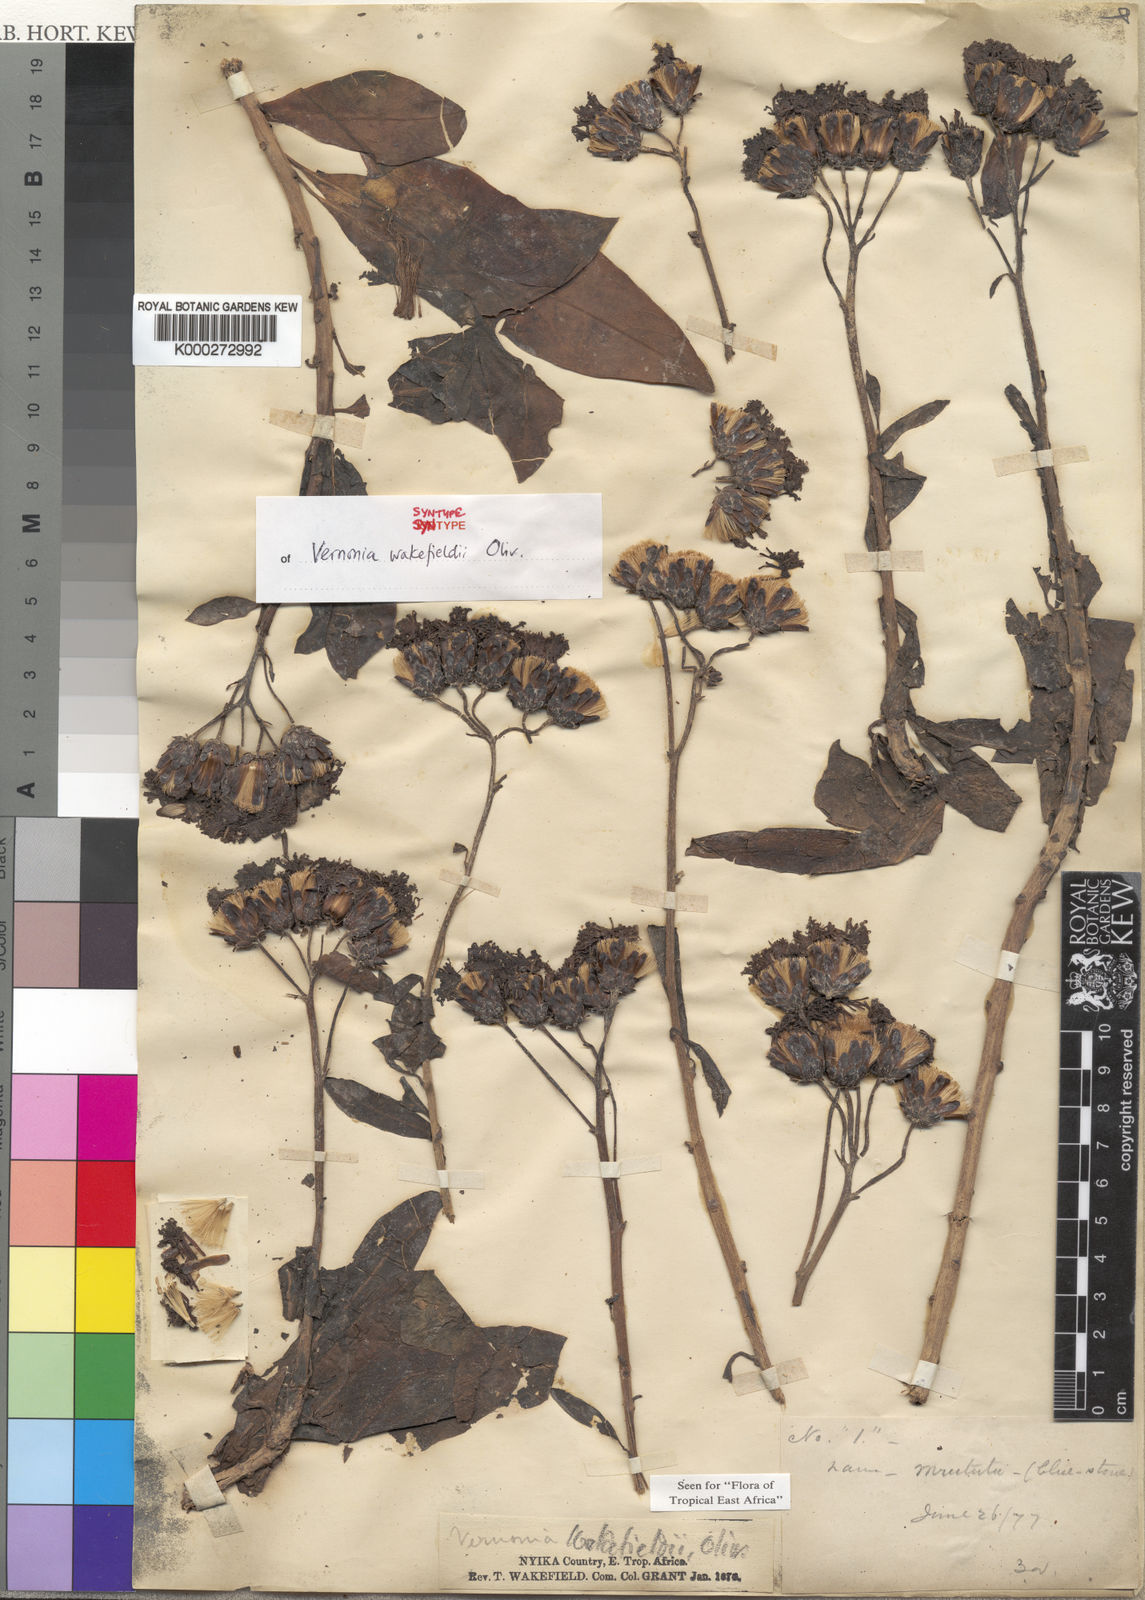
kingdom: Plantae
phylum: Tracheophyta
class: Magnoliopsida
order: Asterales
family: Asteraceae
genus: Vernonia
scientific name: Vernonia wakefieldii
